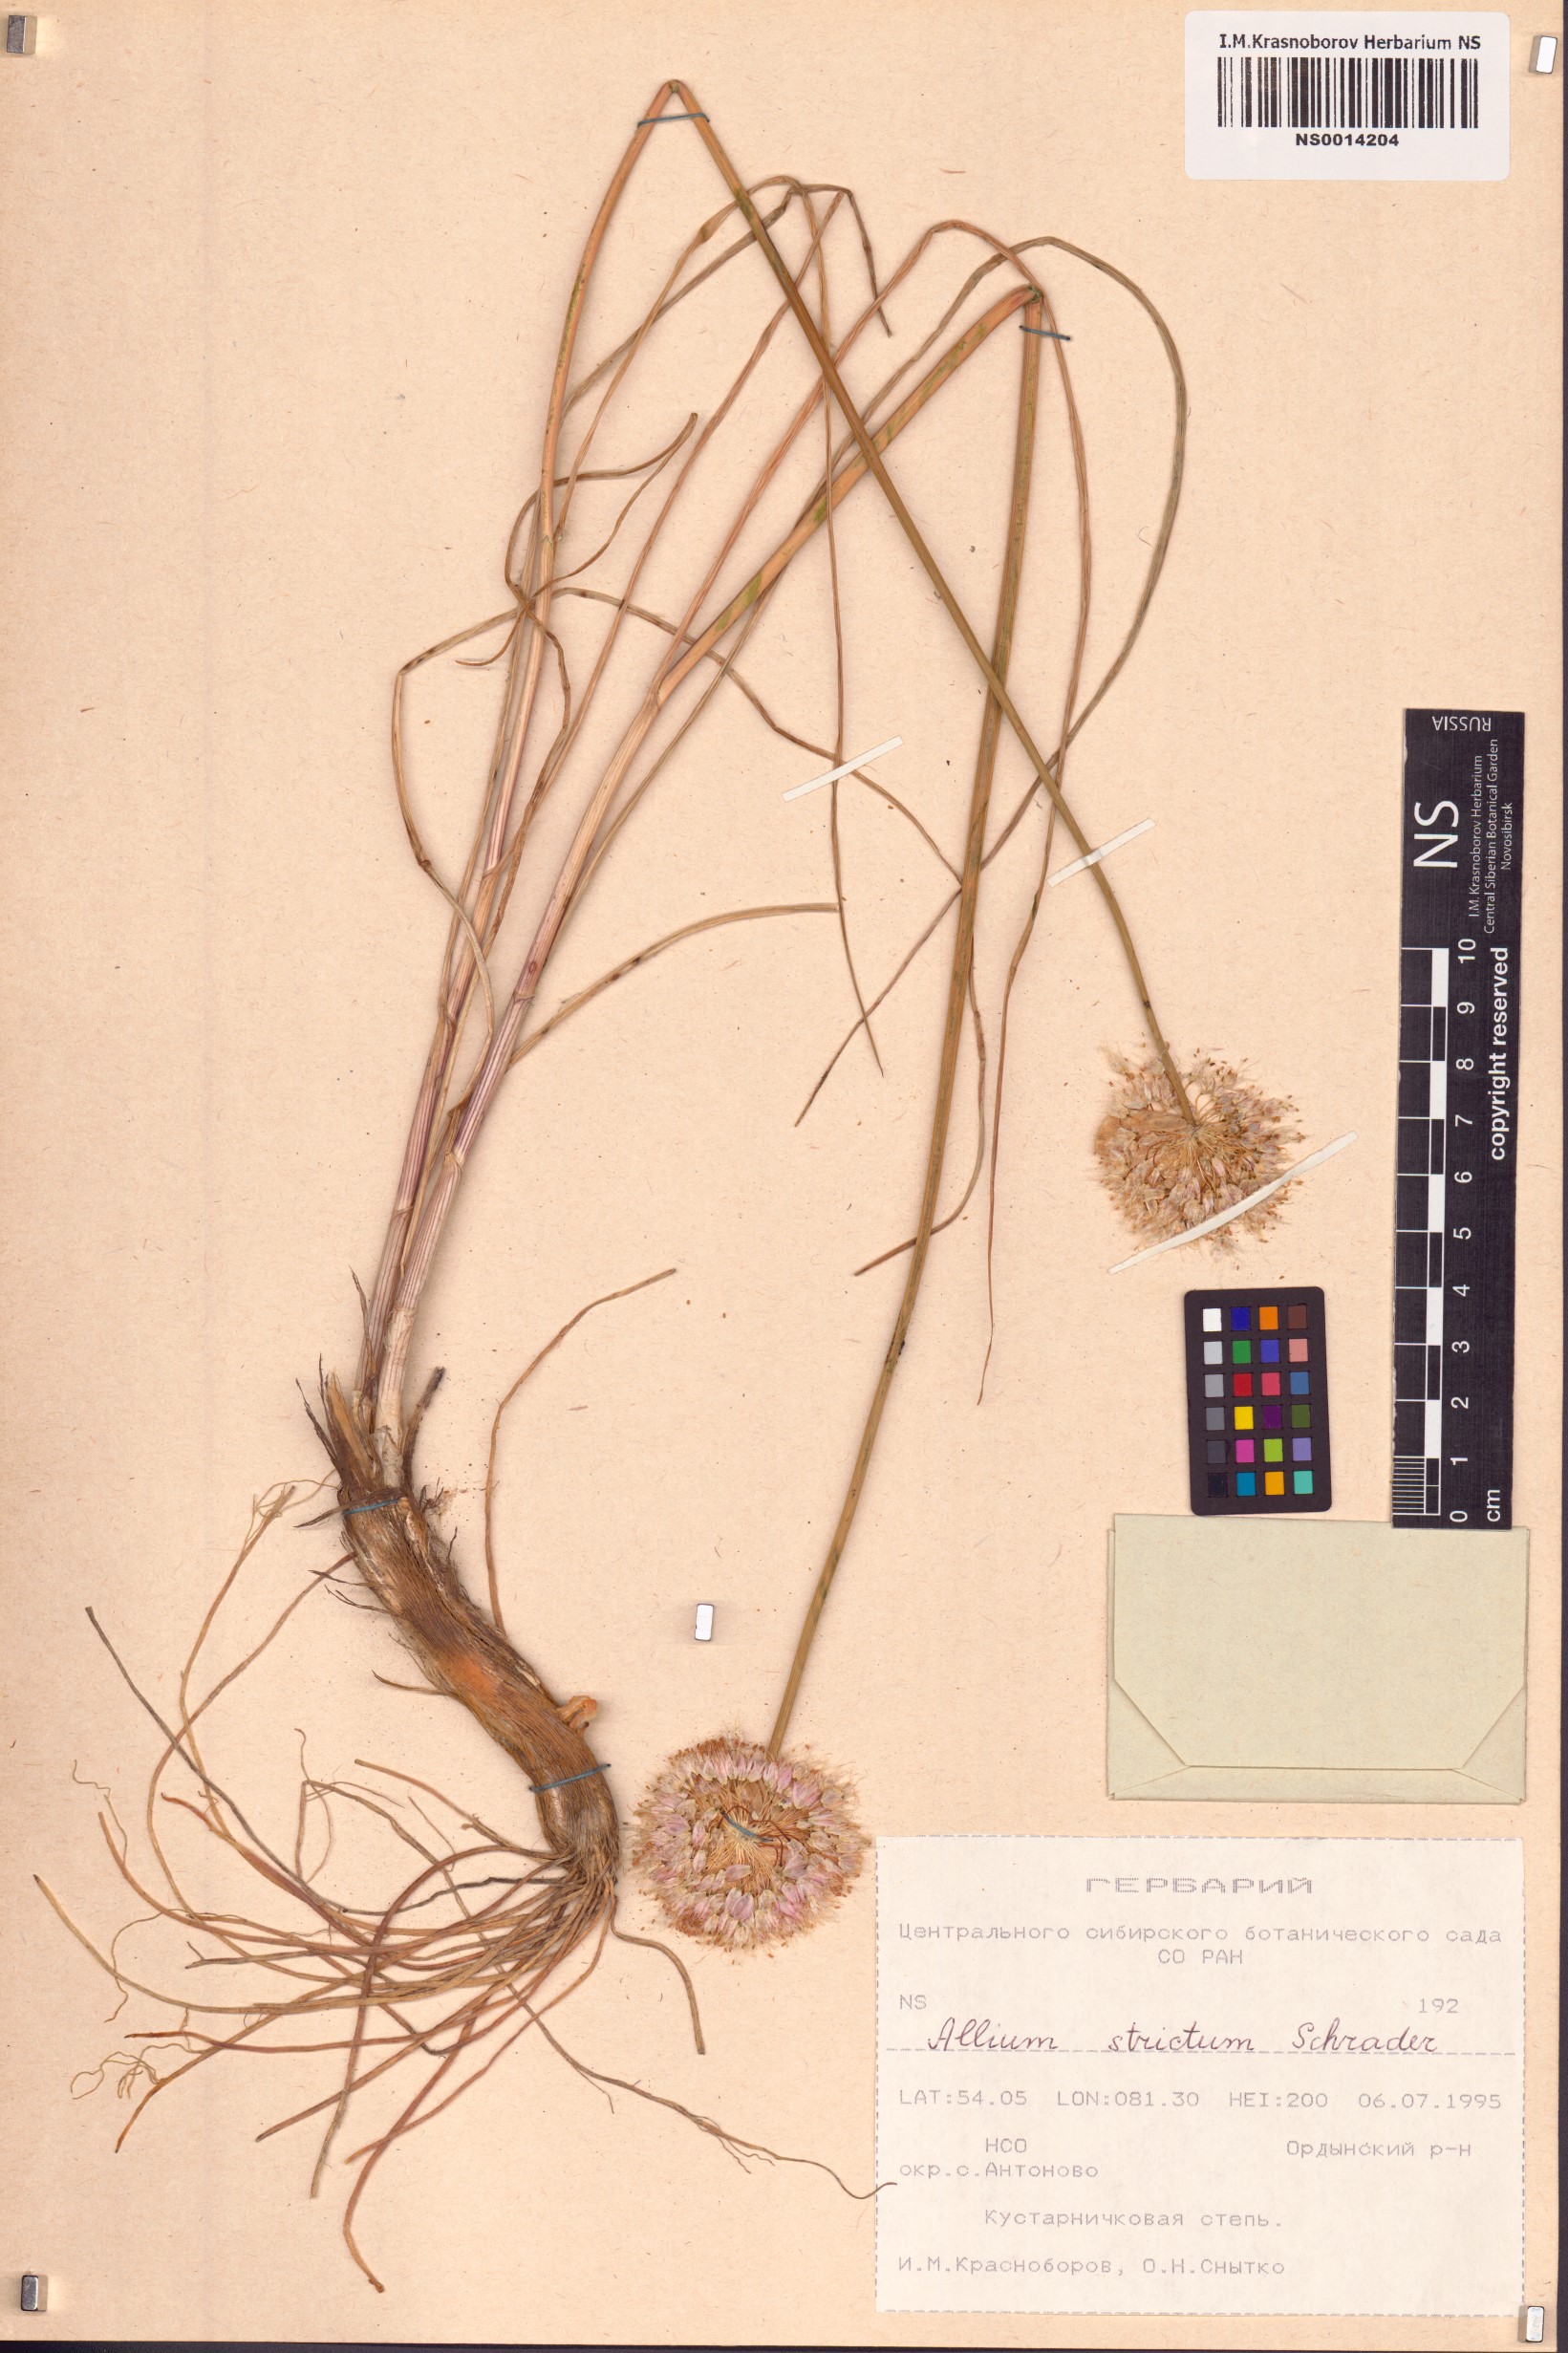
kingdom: Plantae
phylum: Tracheophyta
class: Liliopsida
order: Asparagales
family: Amaryllidaceae
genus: Allium
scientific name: Allium strictum
